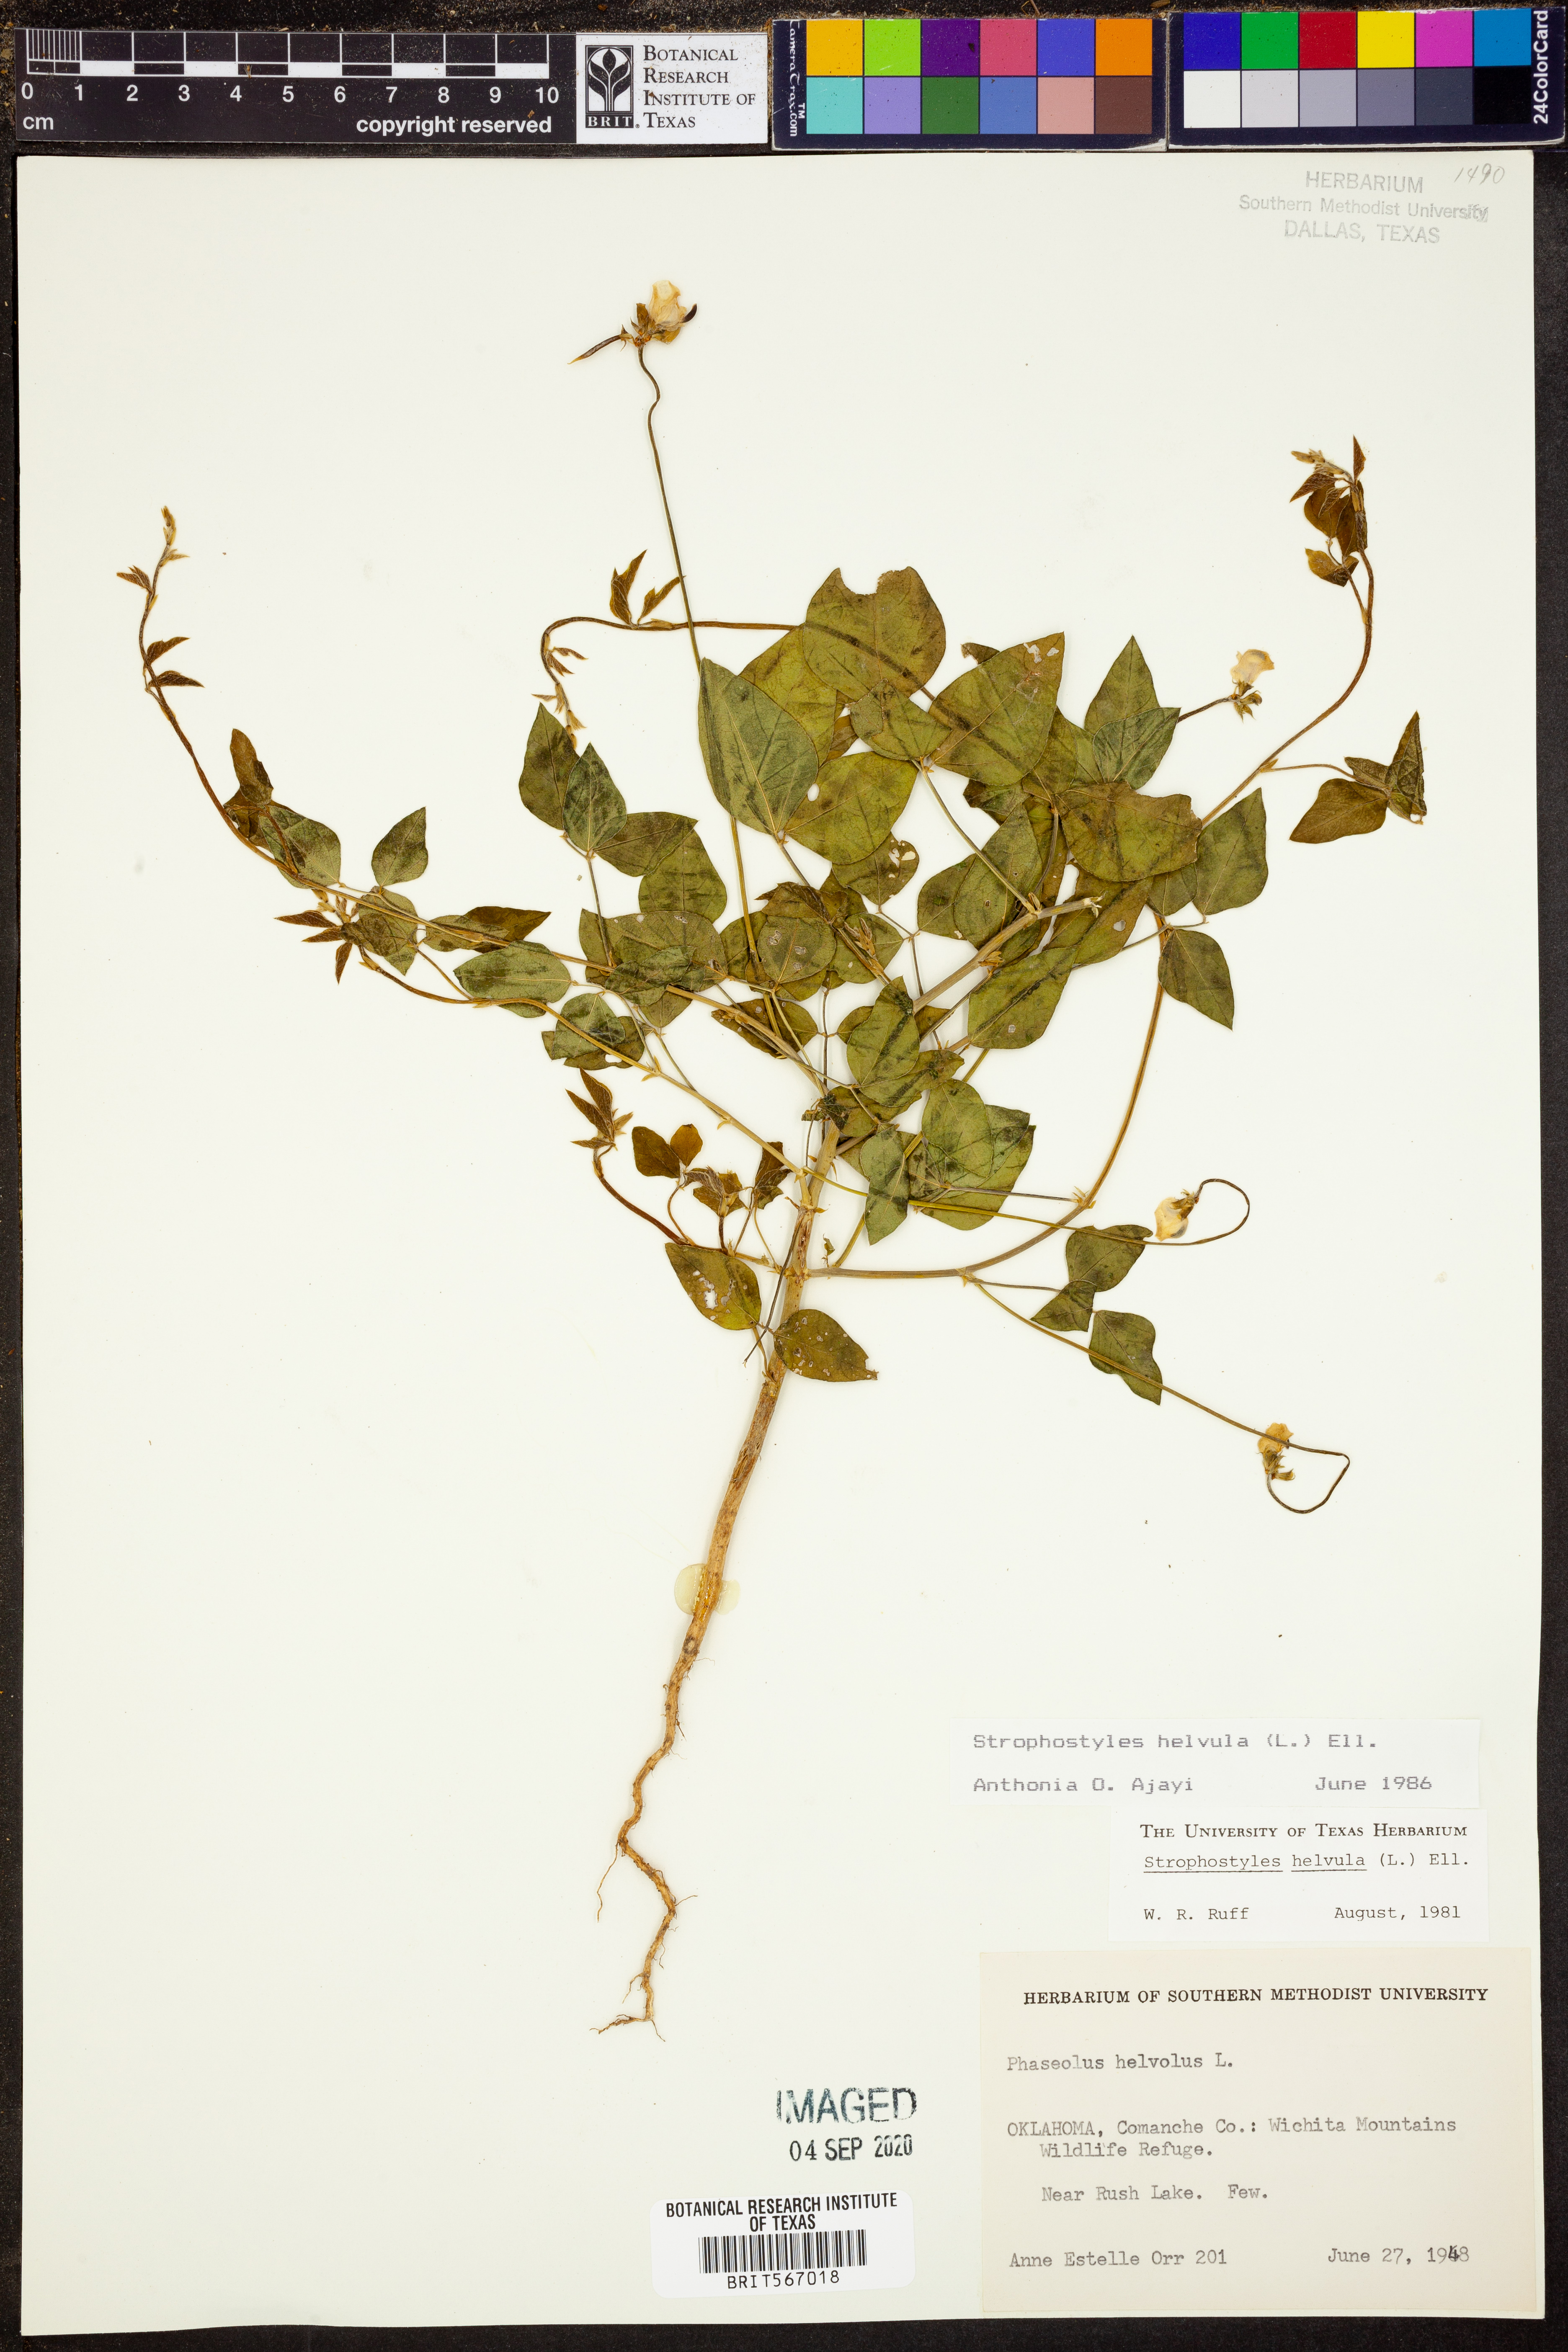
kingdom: Plantae
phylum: Tracheophyta
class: Magnoliopsida
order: Fabales
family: Fabaceae
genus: Strophostyles
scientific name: Strophostyles helvula
